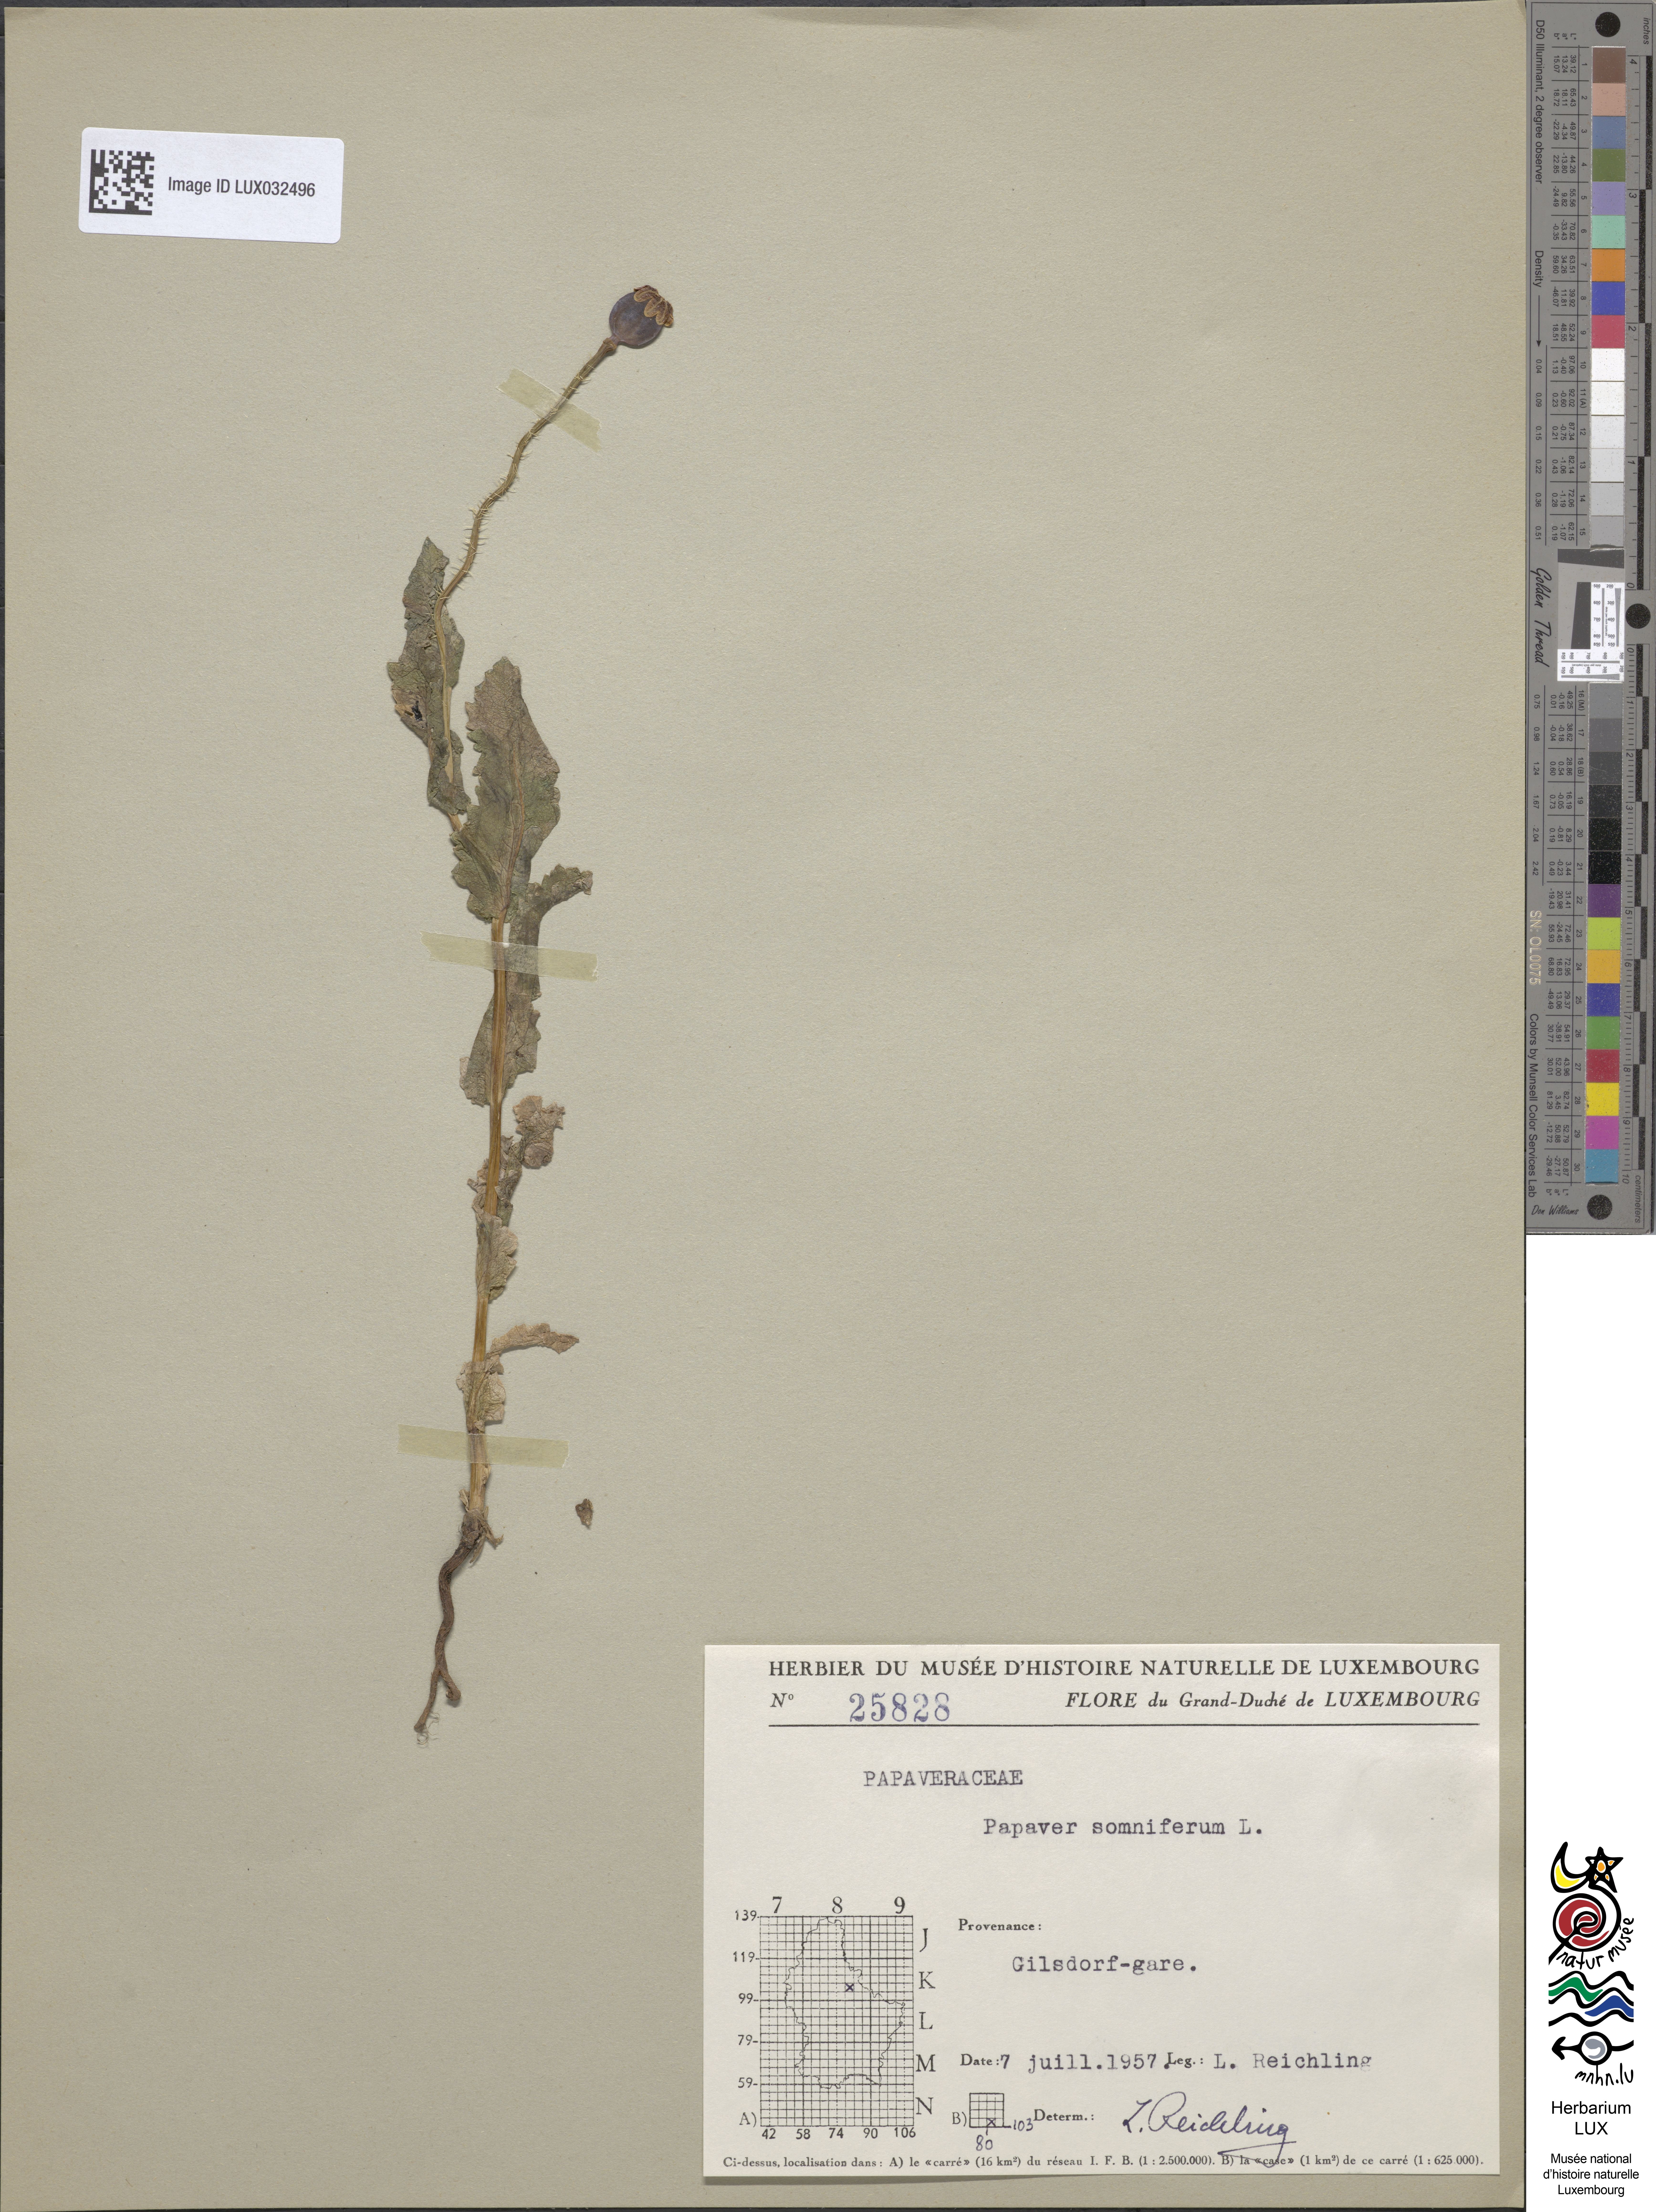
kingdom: Plantae
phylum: Tracheophyta
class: Magnoliopsida
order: Ranunculales
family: Papaveraceae
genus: Papaver
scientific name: Papaver somniferum
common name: Opium poppy
